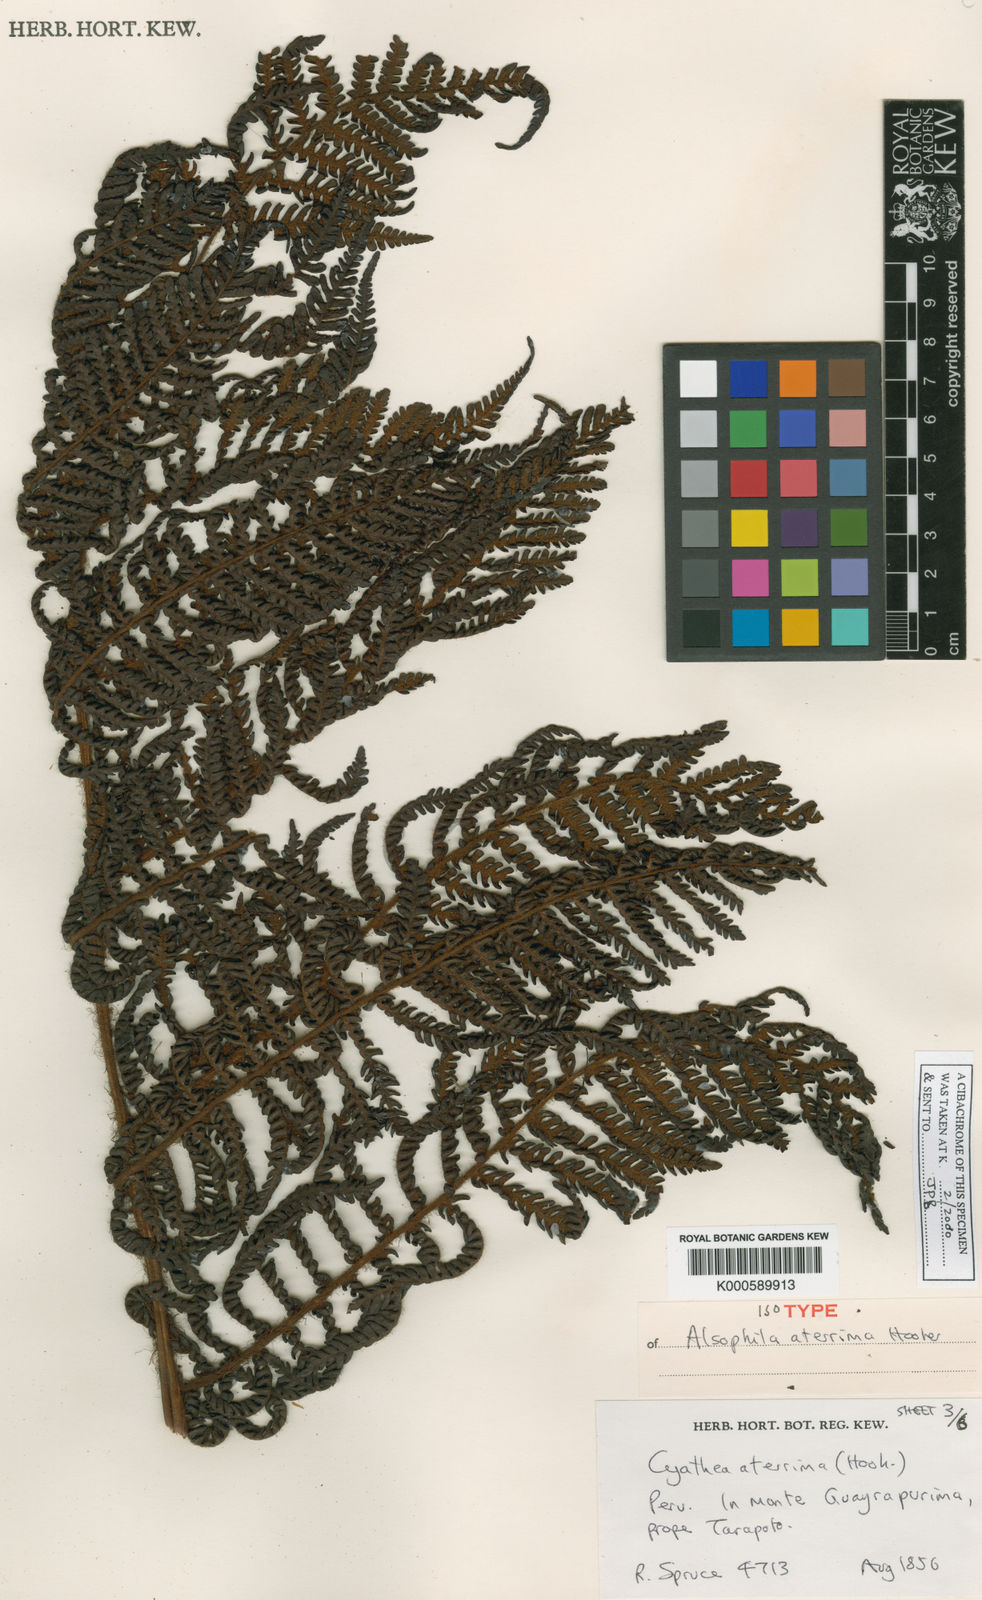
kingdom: Plantae
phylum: Tracheophyta
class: Polypodiopsida
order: Cyatheales
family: Cyatheaceae
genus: Cyathea
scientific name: Cyathea aterrima
